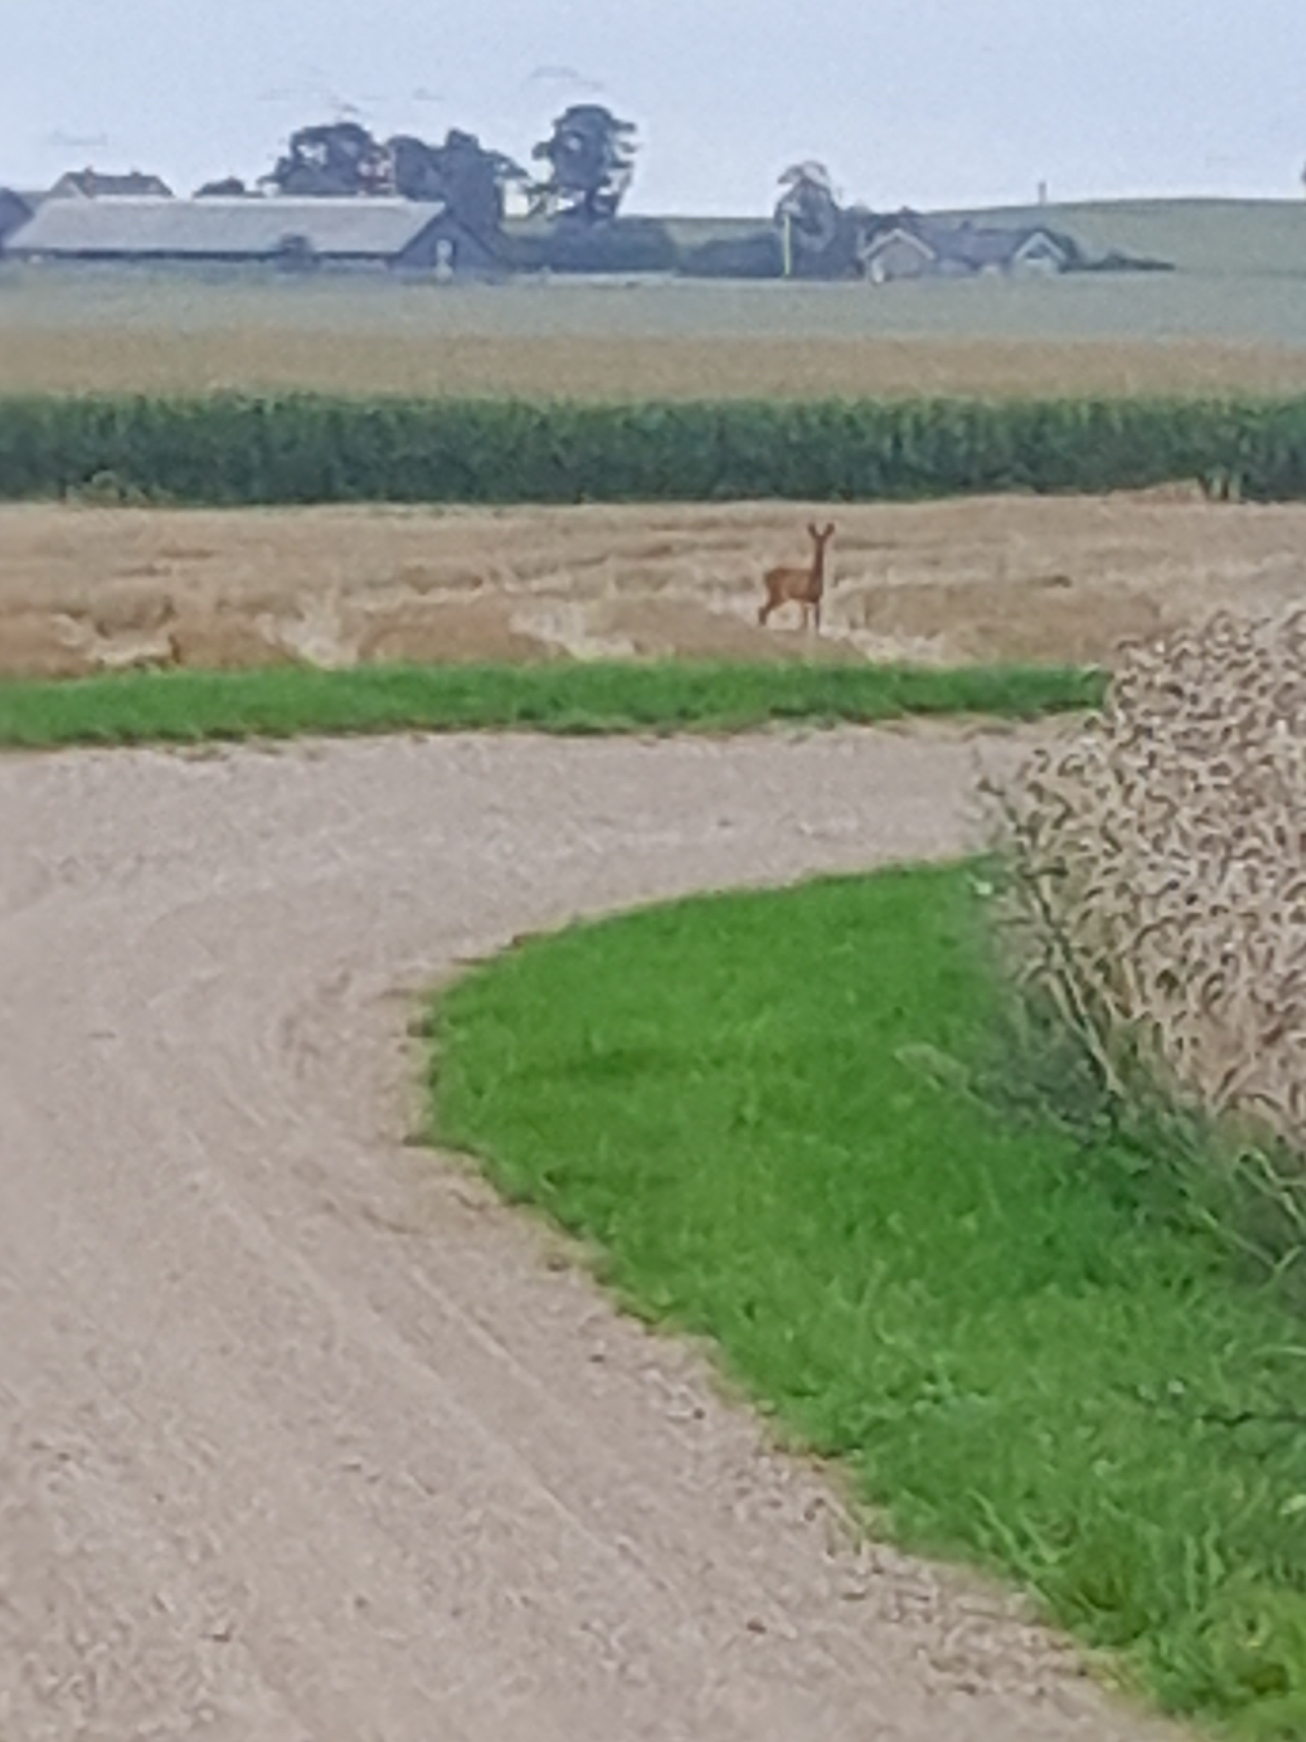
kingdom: Animalia
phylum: Chordata
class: Mammalia
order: Artiodactyla
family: Cervidae
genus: Capreolus
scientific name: Capreolus capreolus
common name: Rådyr
